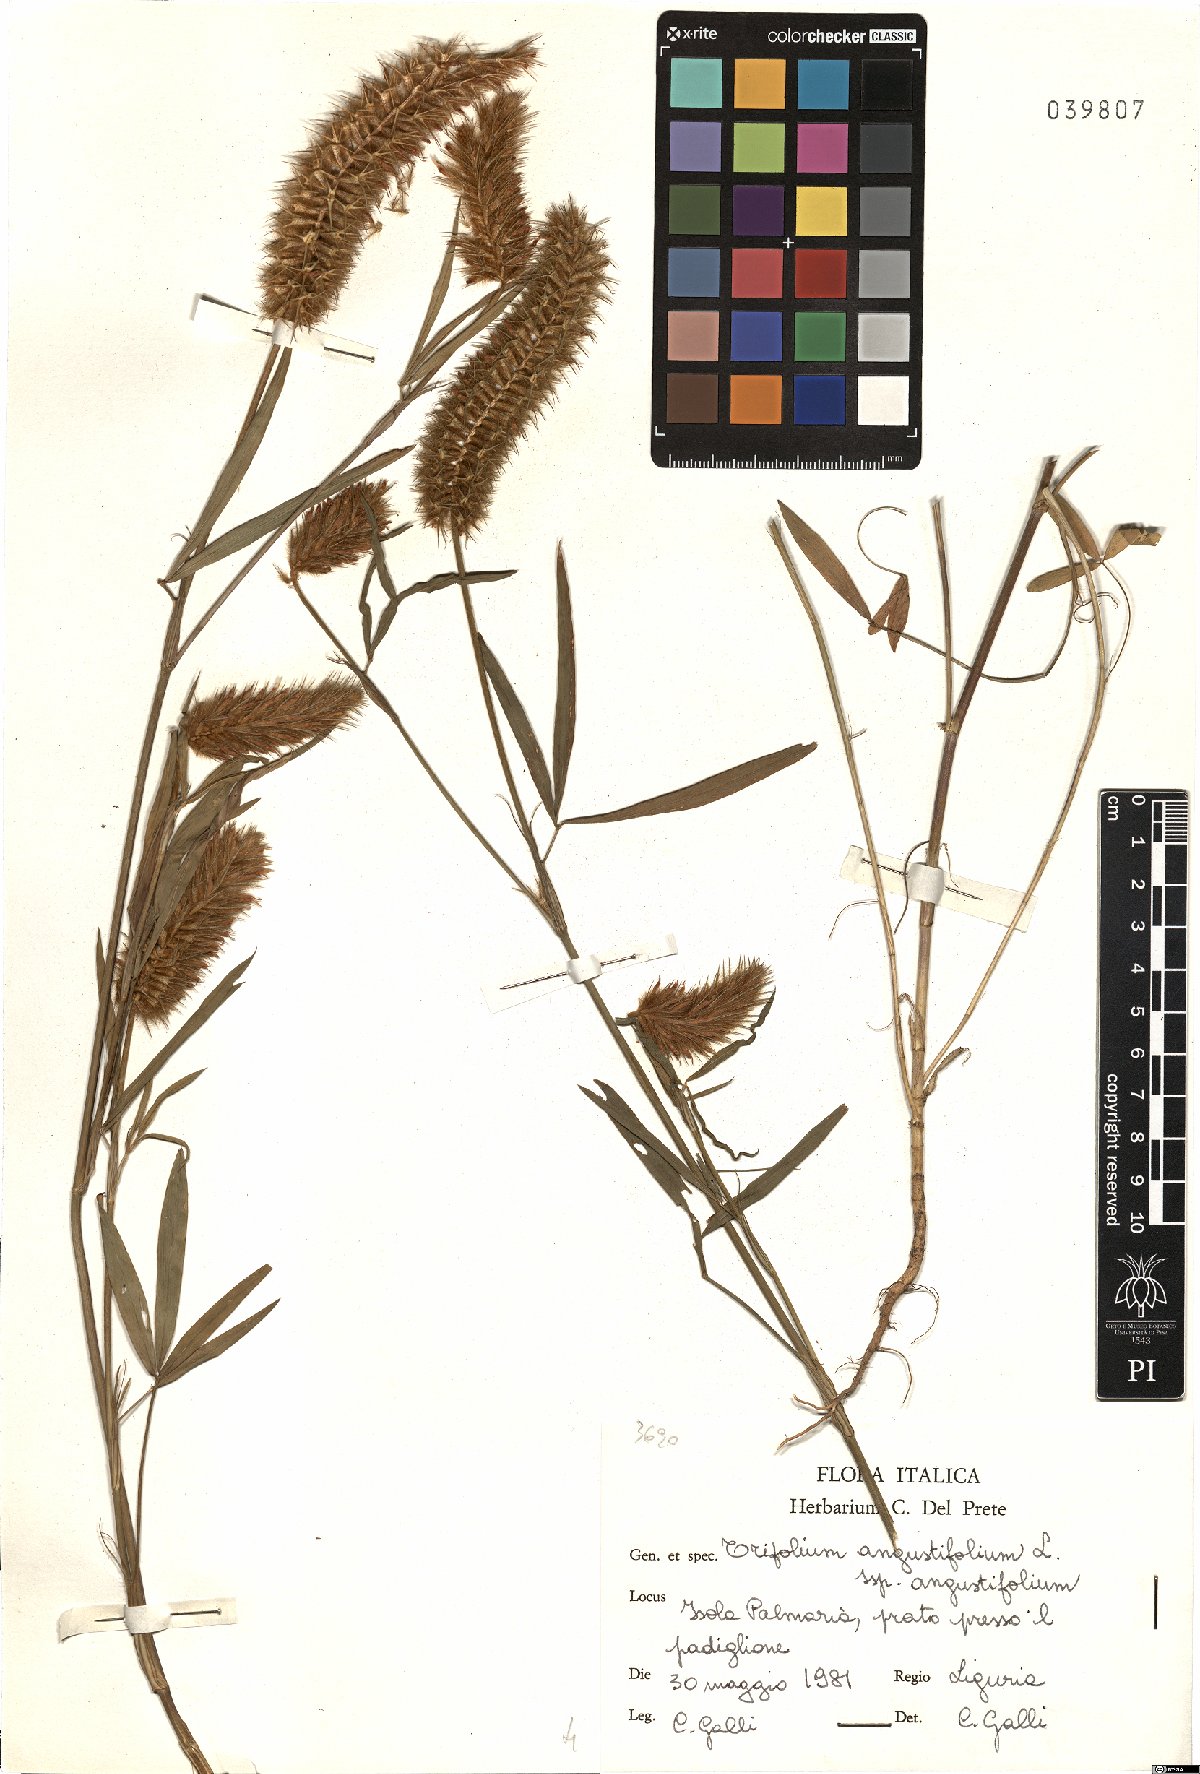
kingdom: Plantae
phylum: Tracheophyta
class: Magnoliopsida
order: Fabales
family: Fabaceae
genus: Trifolium
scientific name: Trifolium angustifolium
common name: Narrow clover
